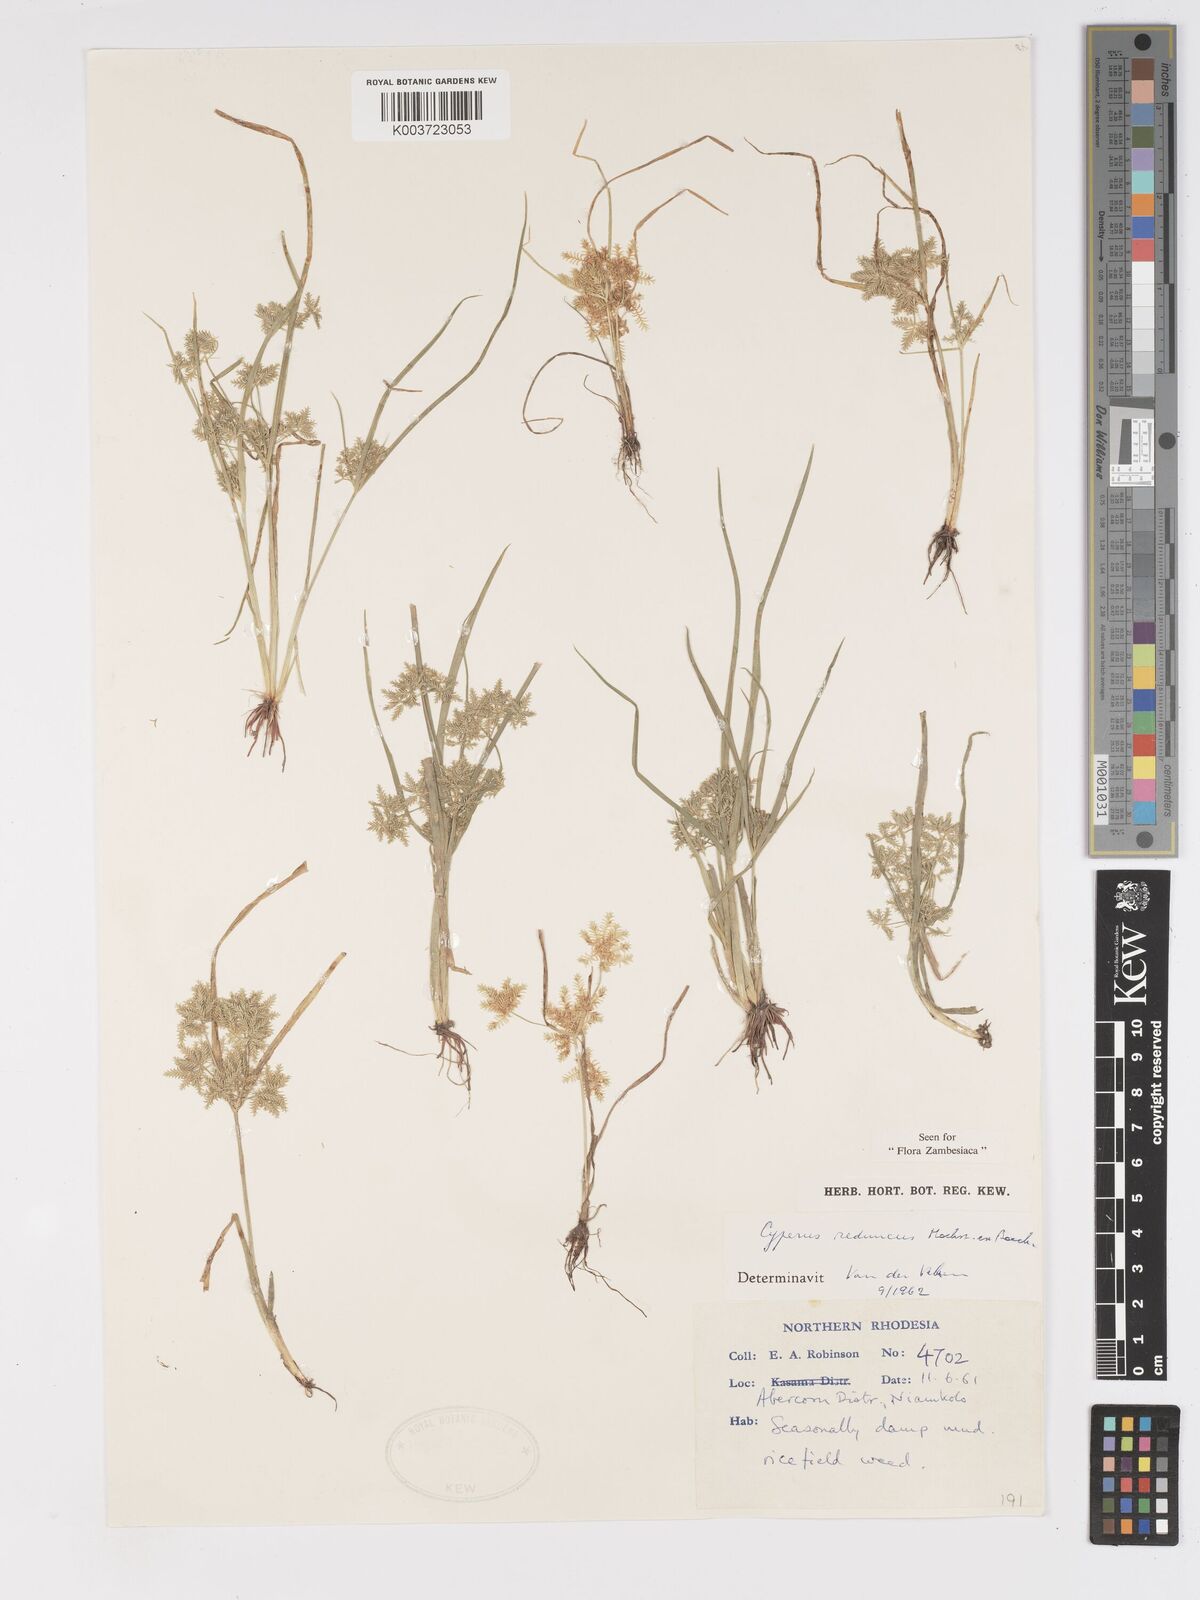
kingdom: Plantae
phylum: Tracheophyta
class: Liliopsida
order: Poales
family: Cyperaceae
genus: Cyperus
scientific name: Cyperus reduncus
